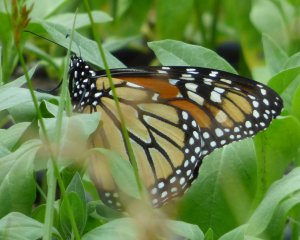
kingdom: Animalia
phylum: Arthropoda
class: Insecta
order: Lepidoptera
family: Nymphalidae
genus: Danaus
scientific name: Danaus plexippus
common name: Monarch
